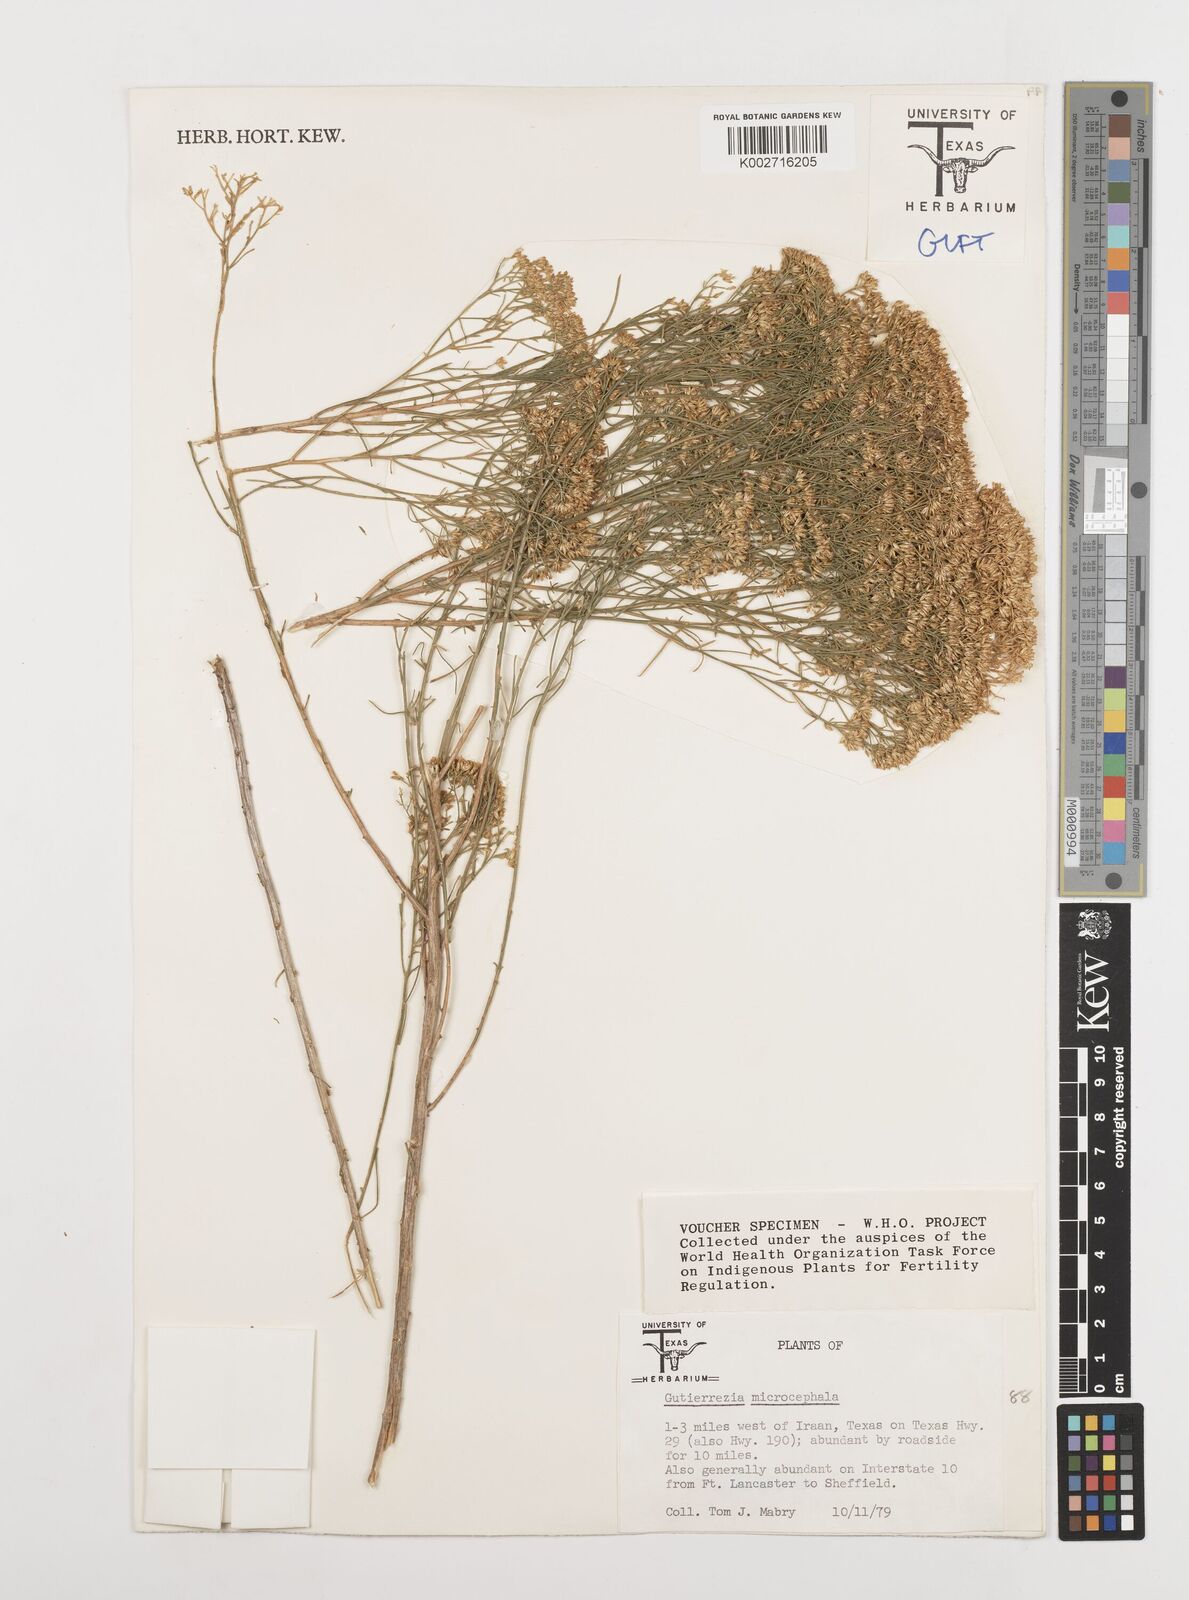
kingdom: Plantae
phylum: Tracheophyta
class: Magnoliopsida
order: Asterales
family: Asteraceae
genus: Gutierrezia
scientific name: Gutierrezia microcephala
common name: Thread snakeweed
